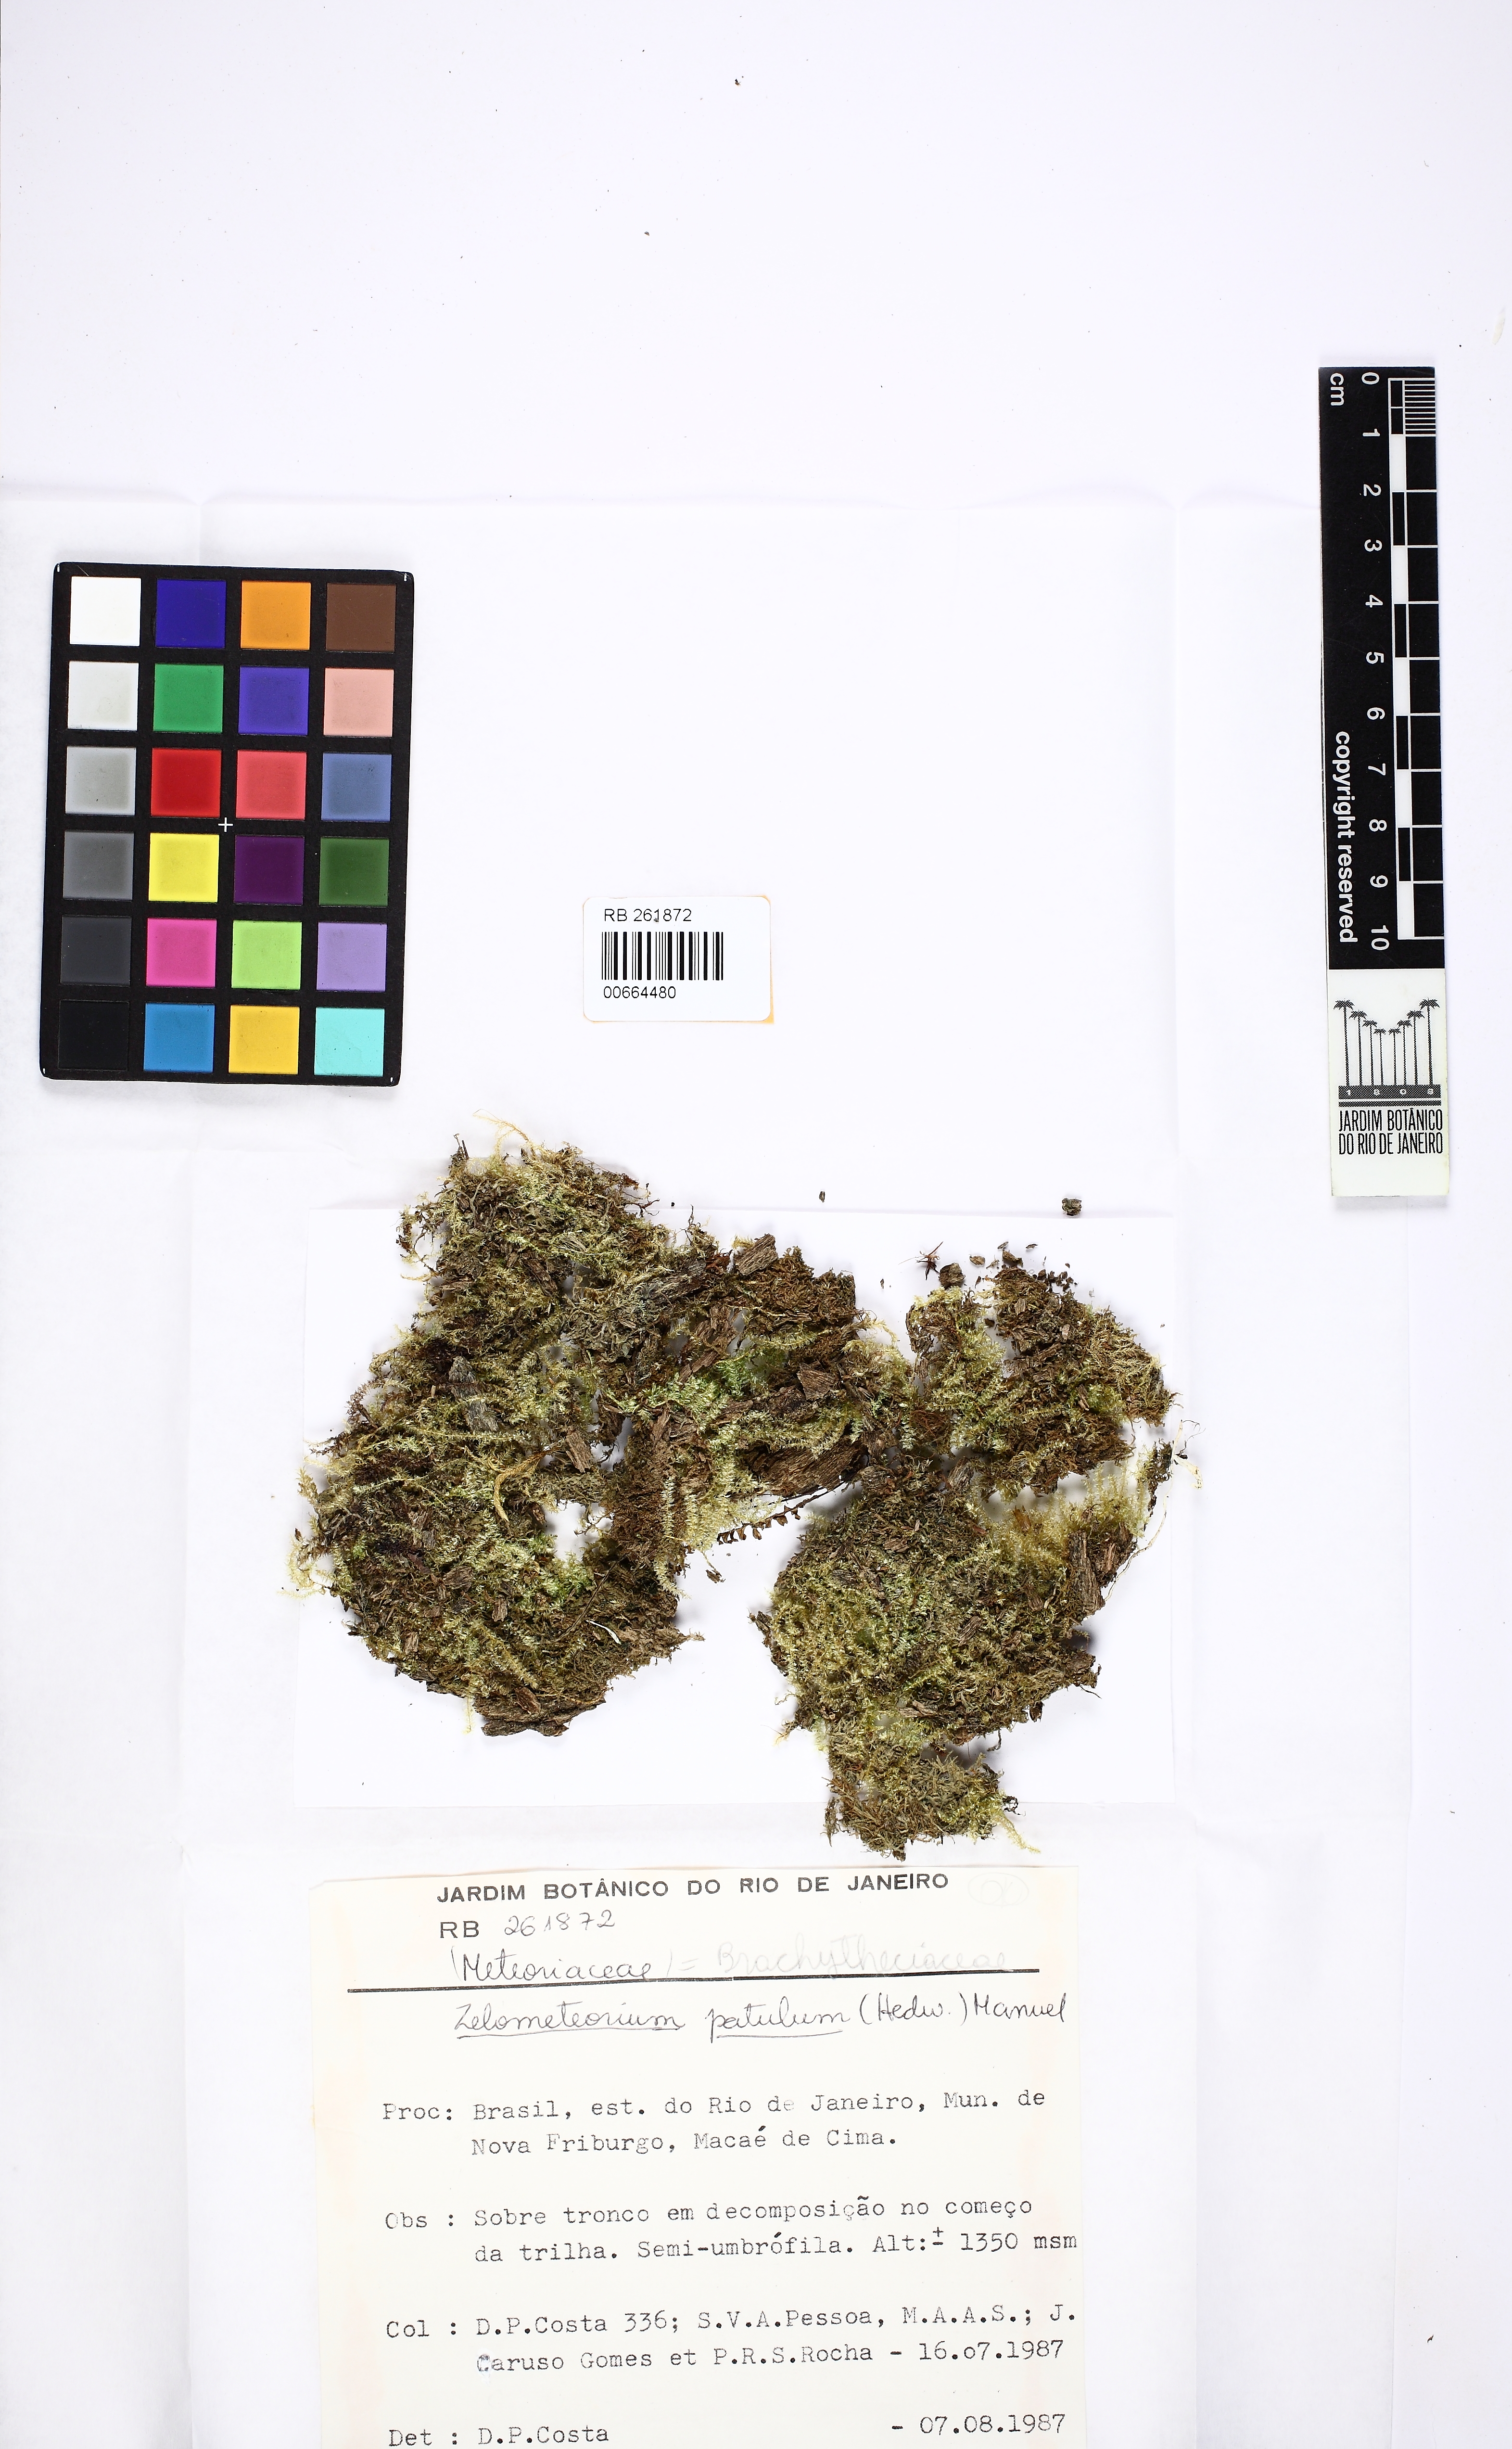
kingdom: Plantae
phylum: Bryophyta
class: Bryopsida
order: Hypnales
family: Brachytheciaceae
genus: Zelometeorium
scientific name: Zelometeorium patulum
